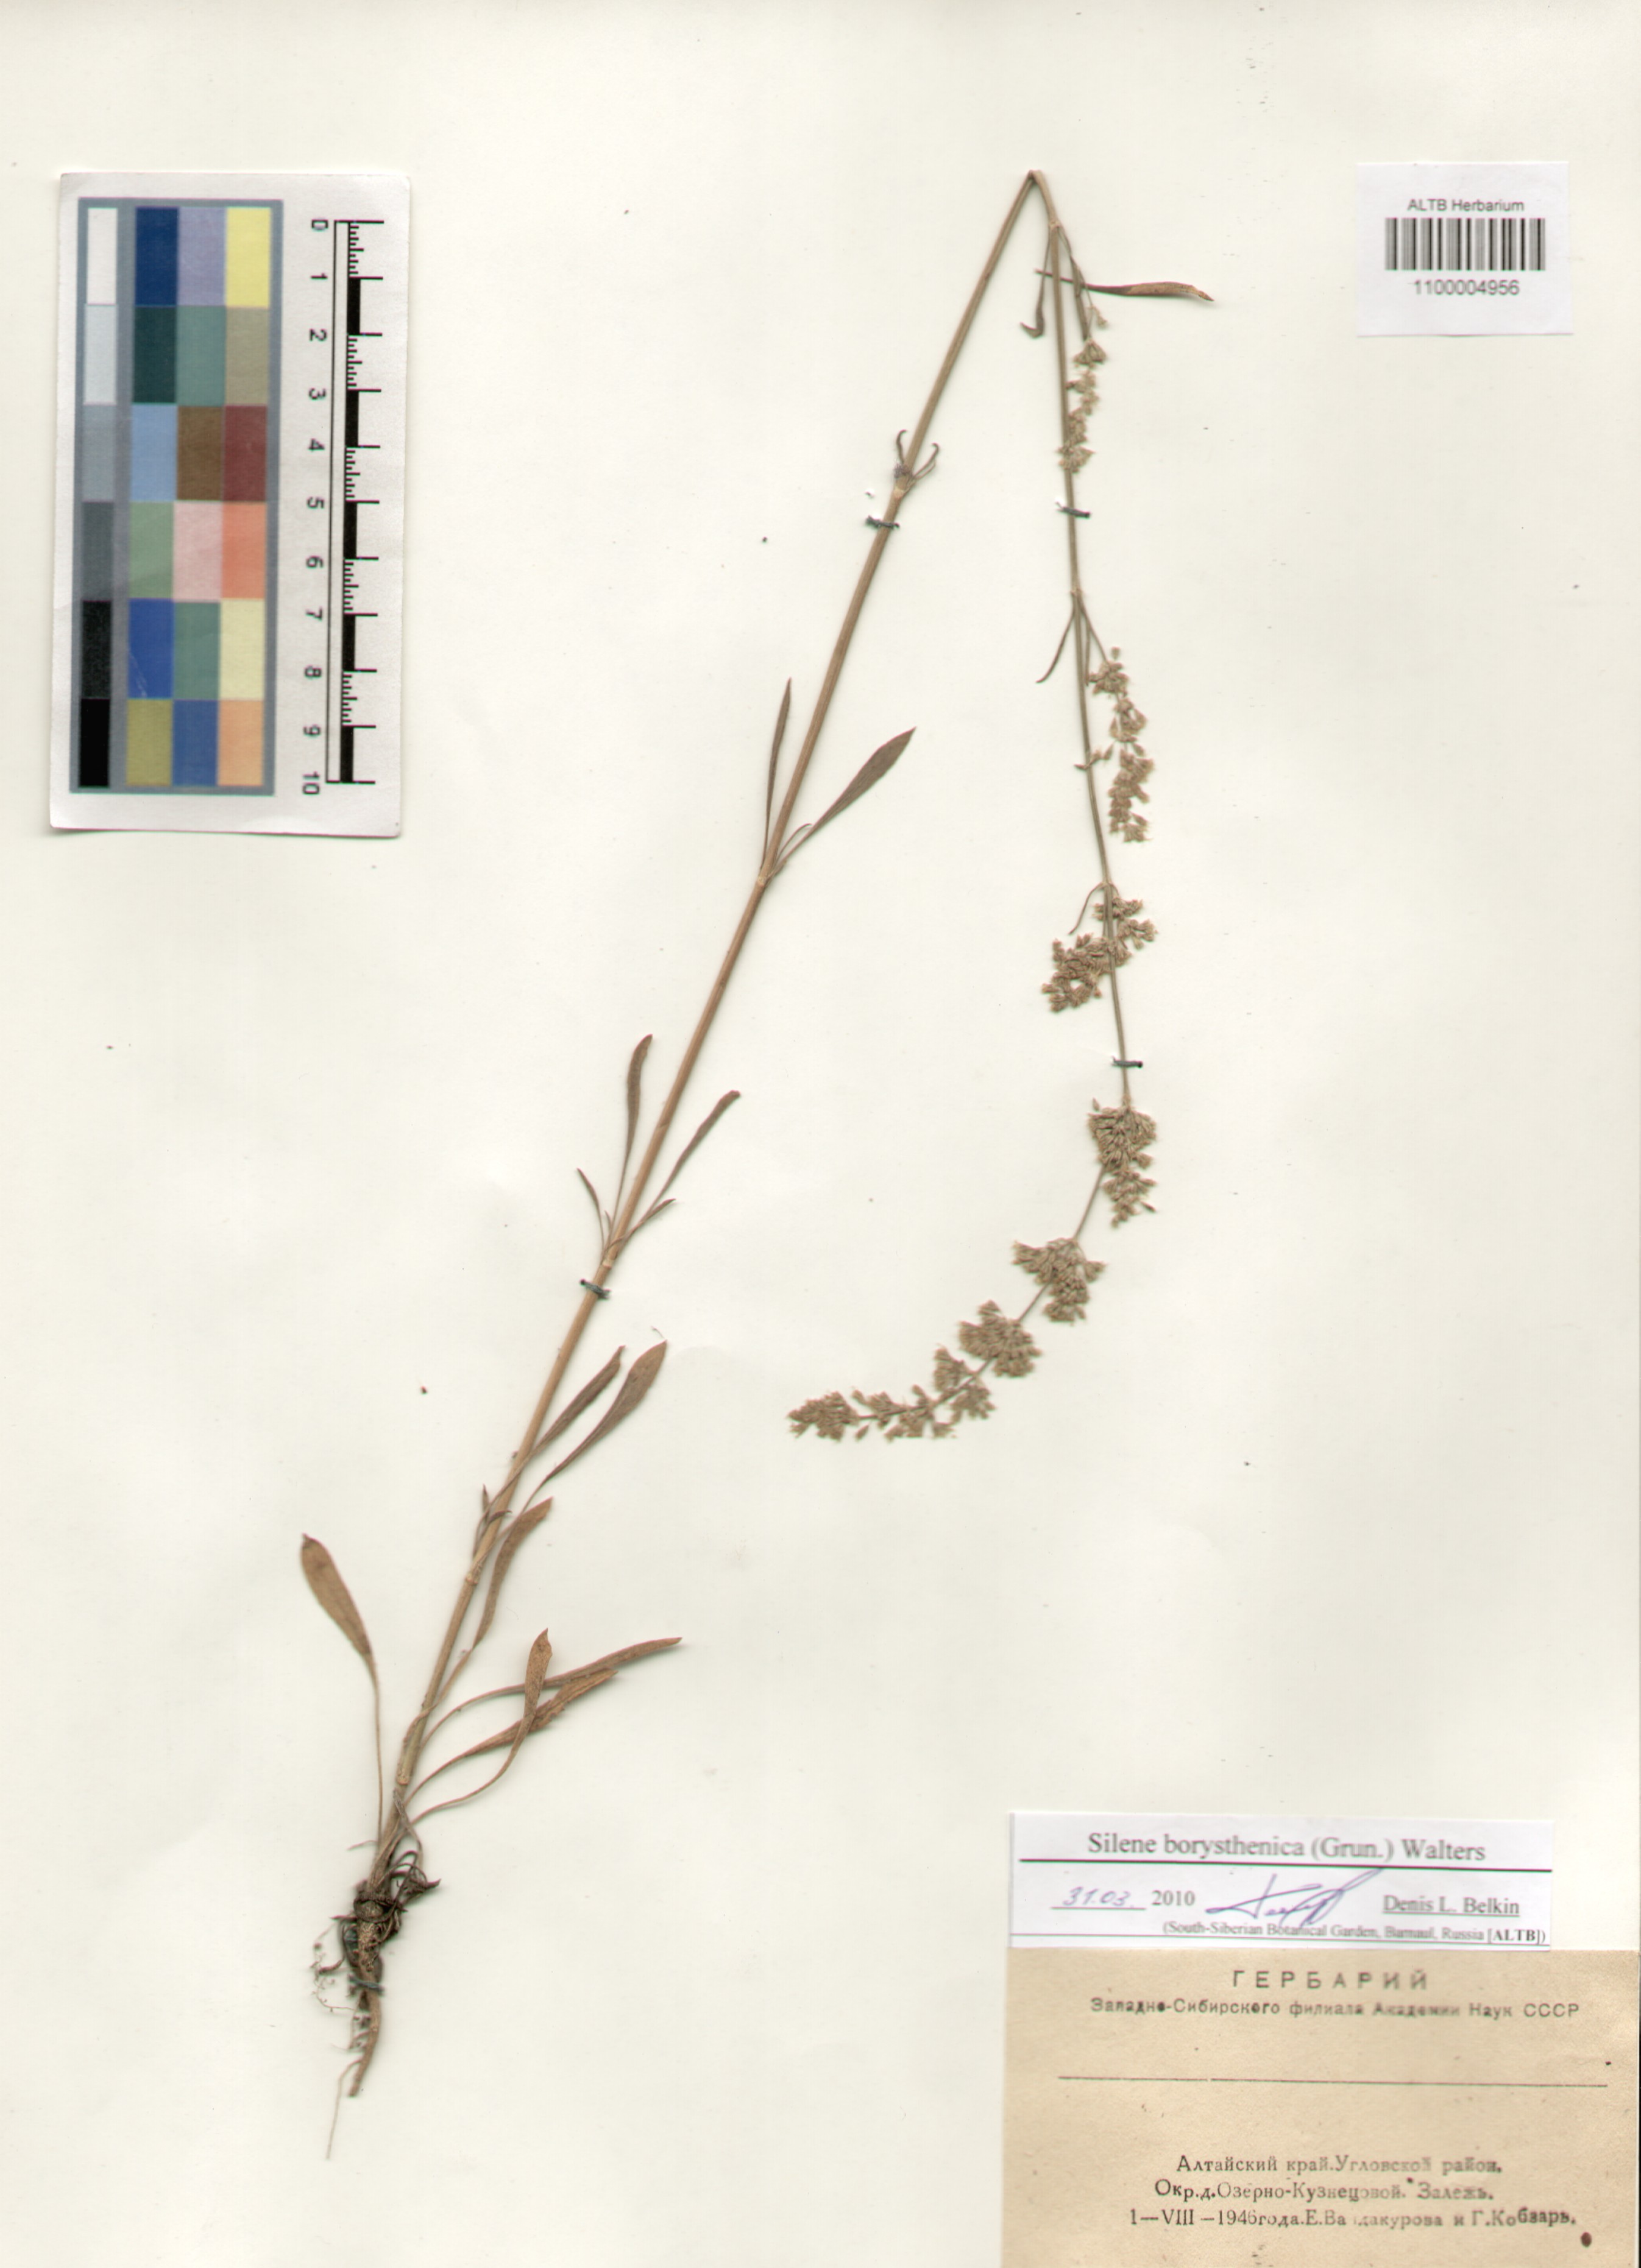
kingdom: Plantae
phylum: Tracheophyta
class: Magnoliopsida
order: Caryophyllales
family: Caryophyllaceae
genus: Silene
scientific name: Silene borysthenica
